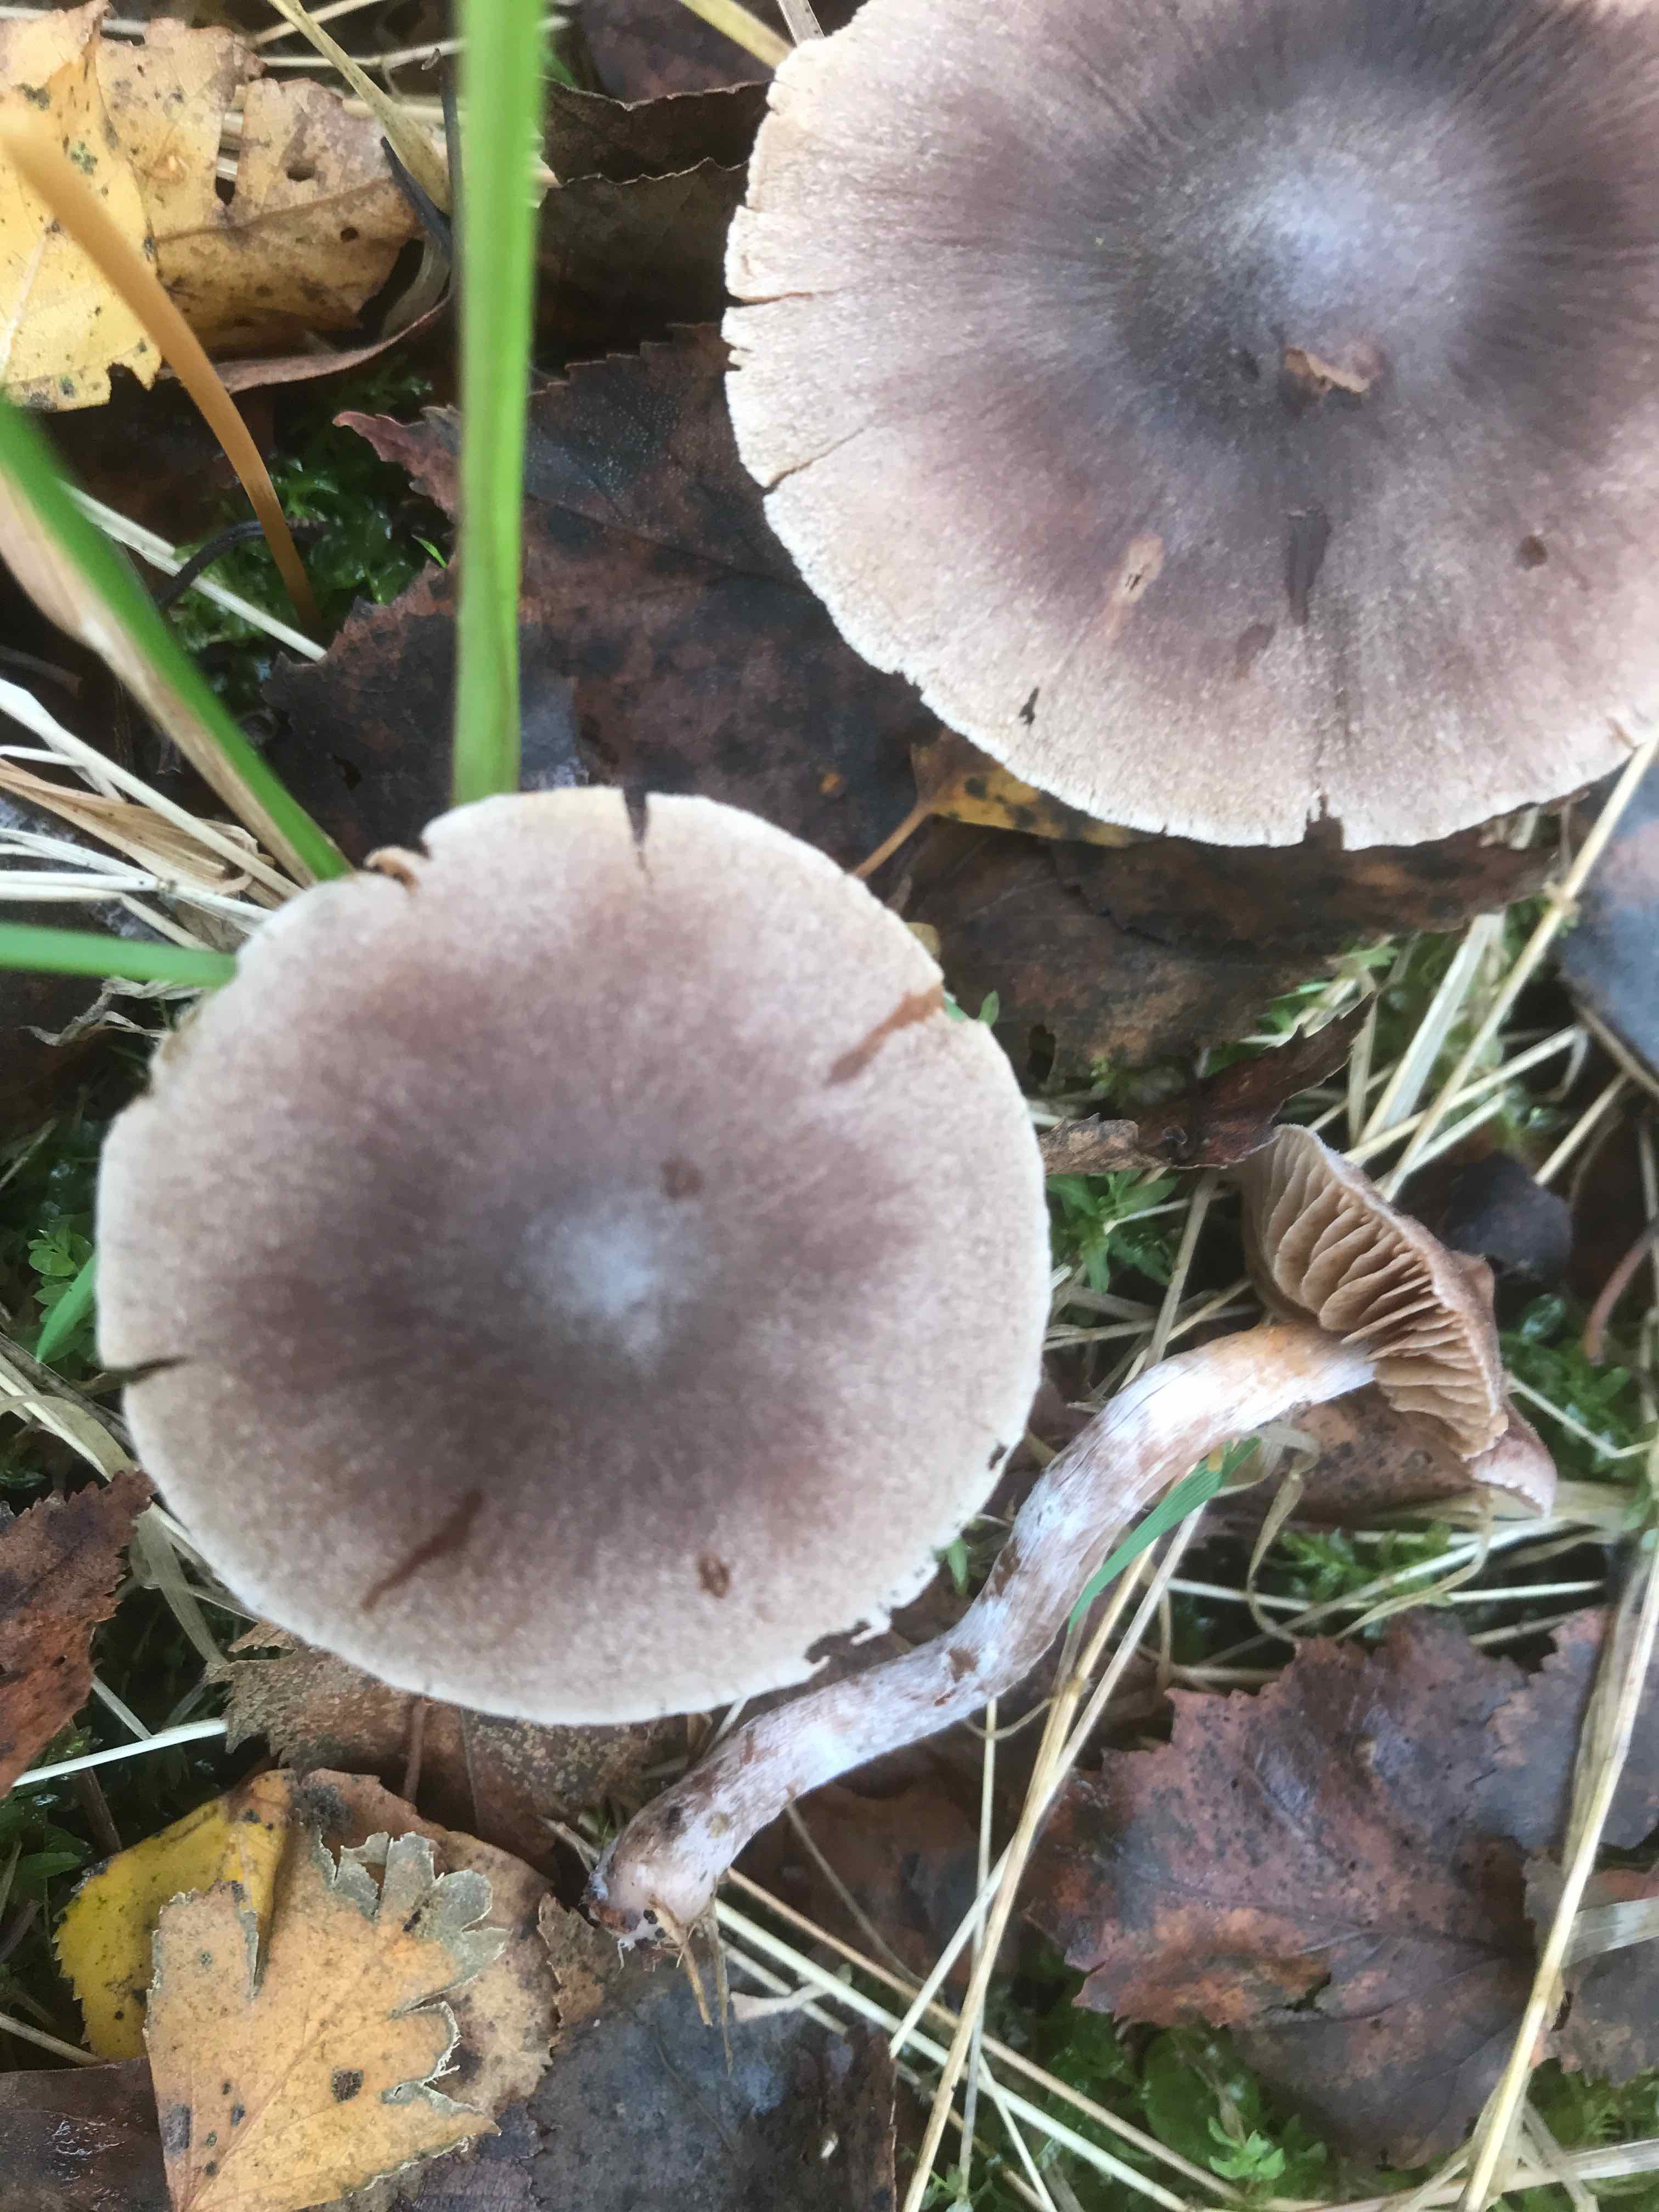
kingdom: Fungi
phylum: Basidiomycota
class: Agaricomycetes
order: Agaricales
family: Cortinariaceae
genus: Cortinarius
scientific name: Cortinarius hemitrichus
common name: hvidfnugget slørhat
